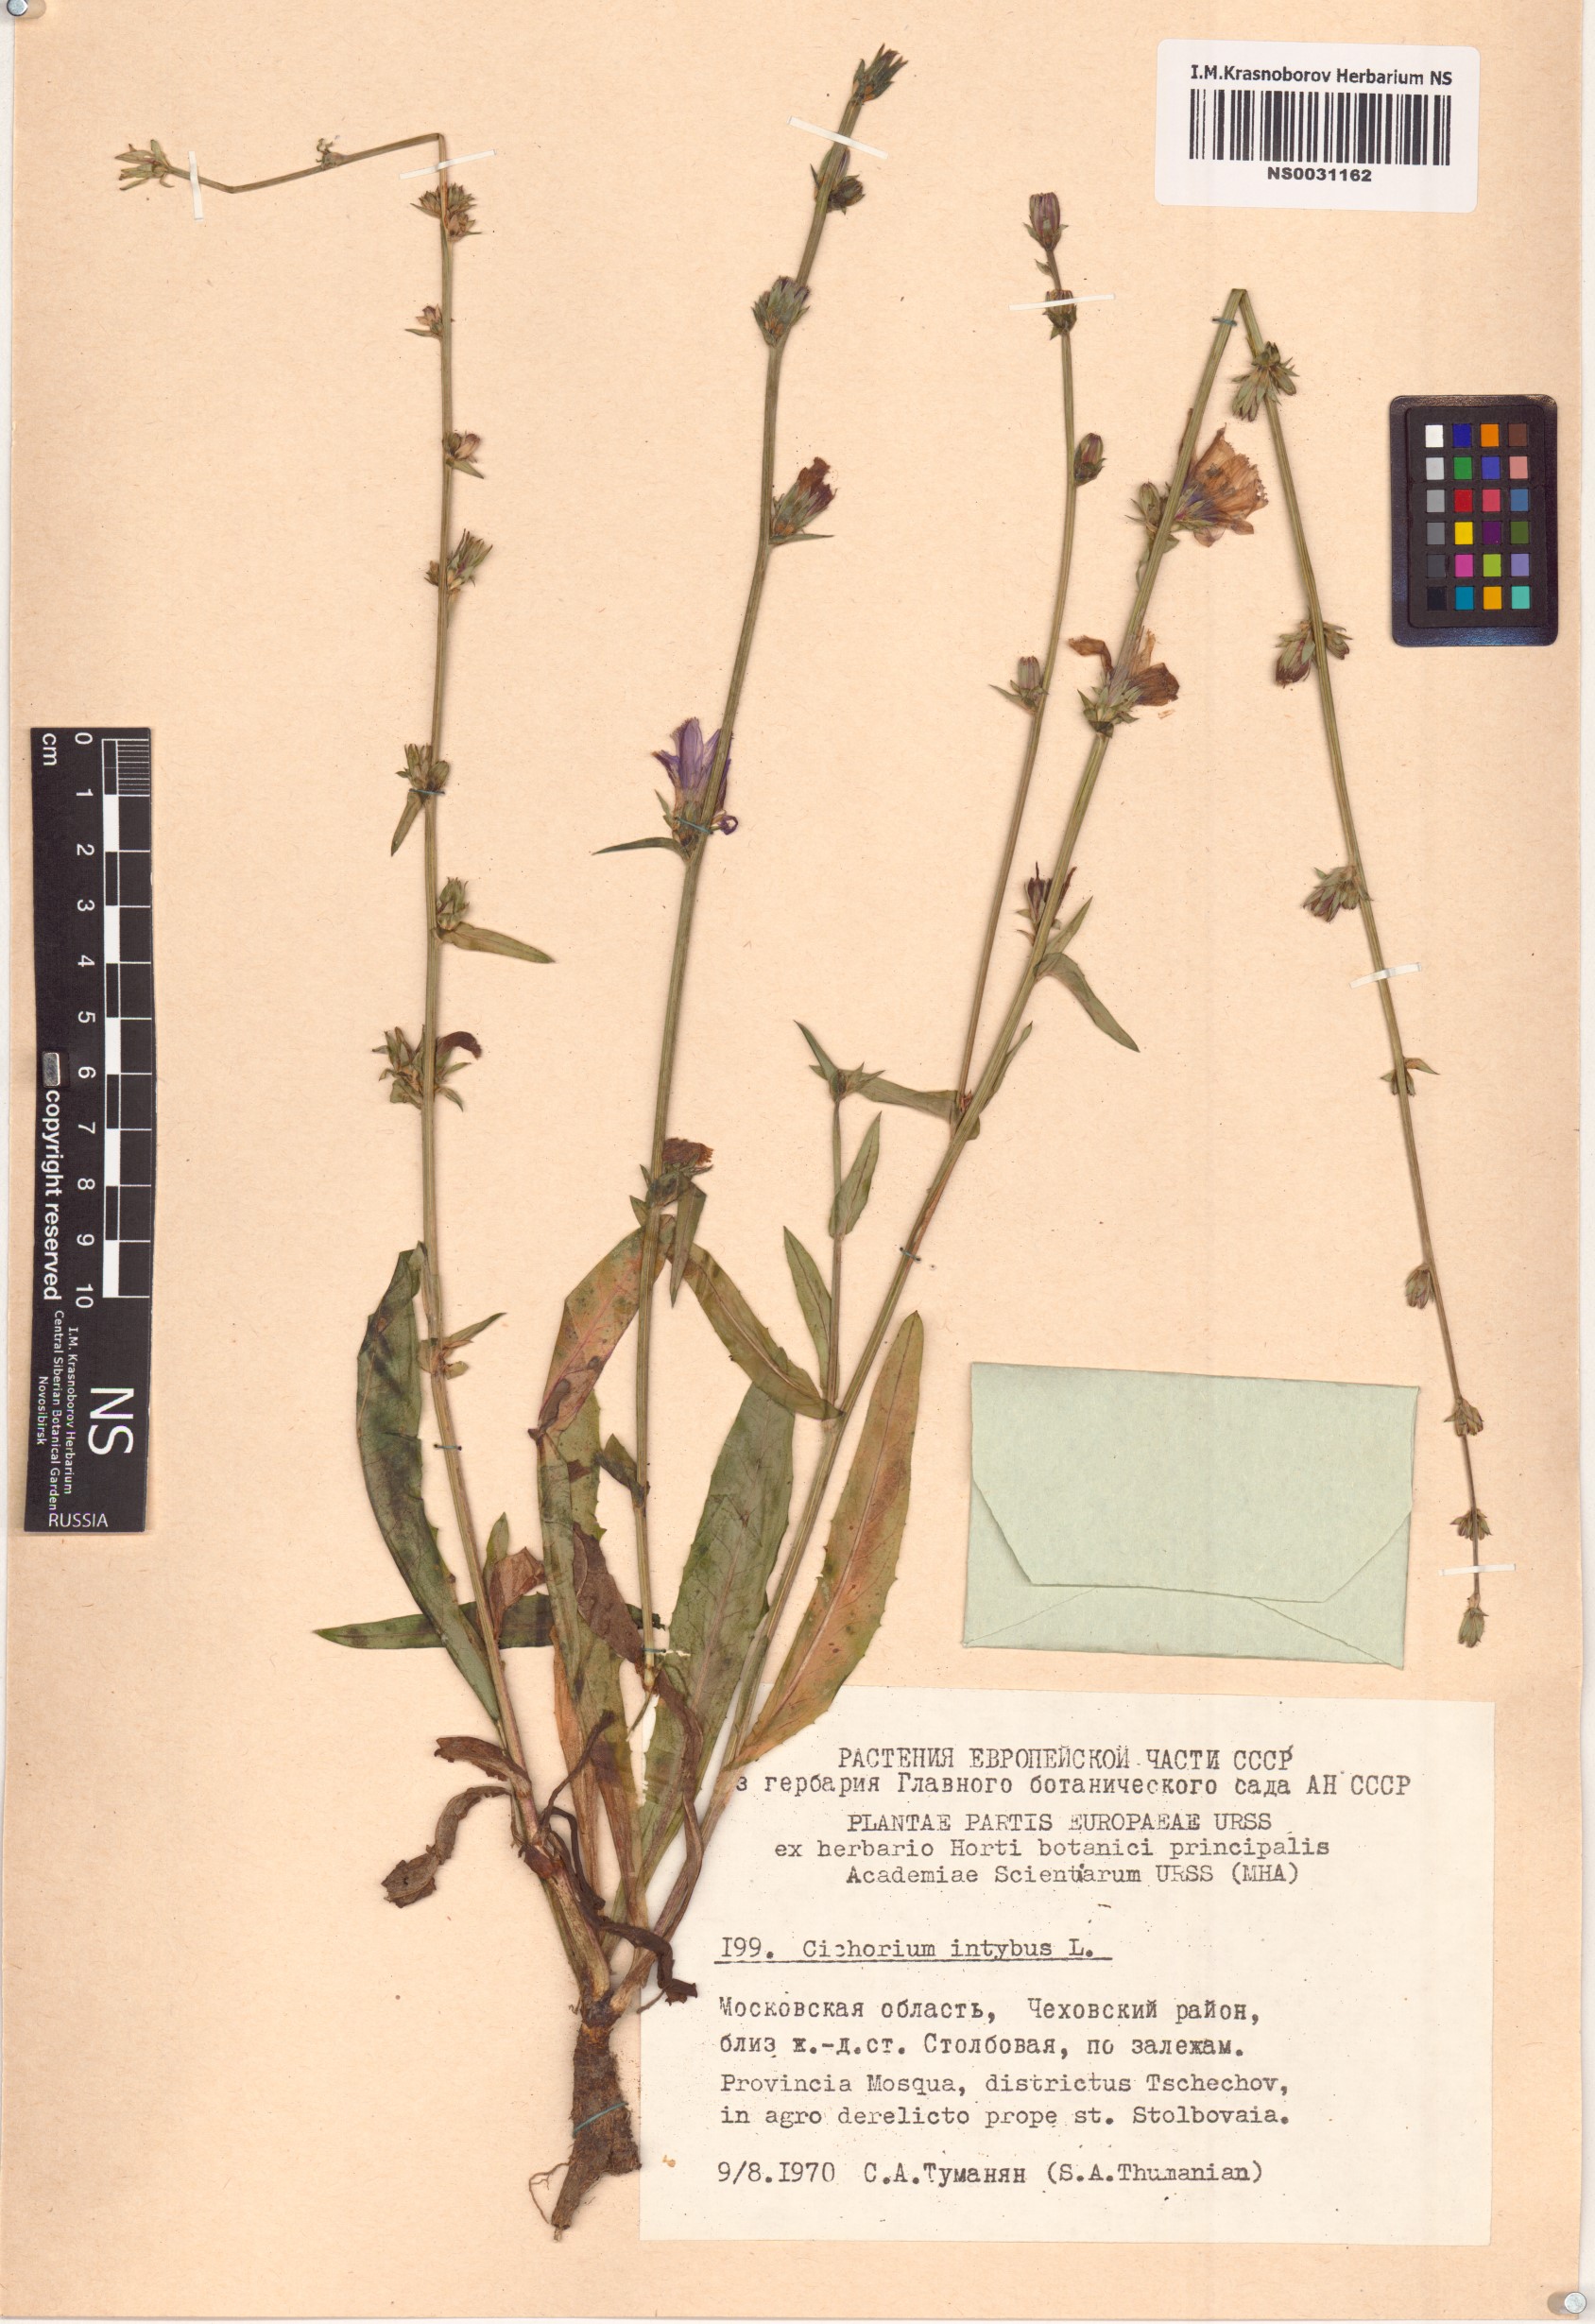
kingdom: Plantae
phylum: Tracheophyta
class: Magnoliopsida
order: Asterales
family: Asteraceae
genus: Cichorium
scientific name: Cichorium intybus
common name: Chicory
